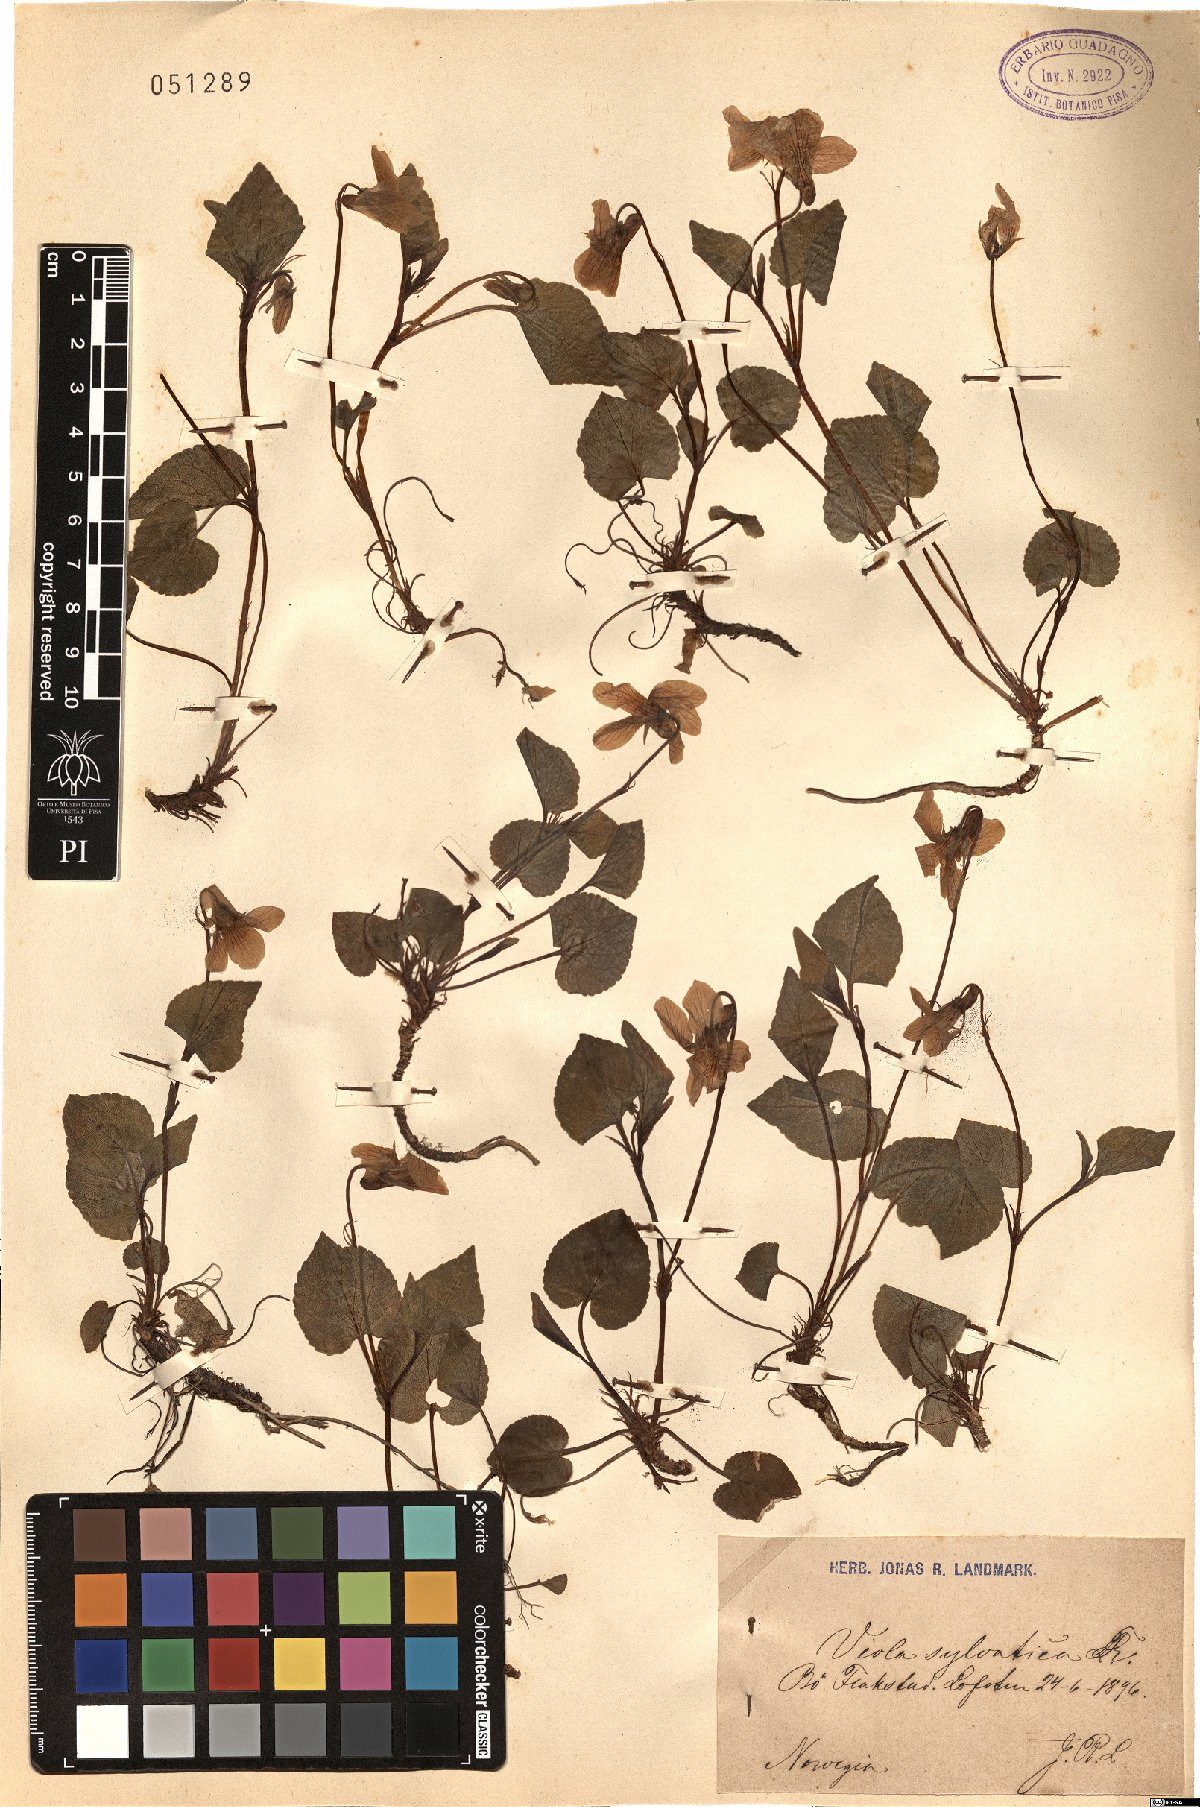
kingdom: Plantae
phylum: Tracheophyta
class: Magnoliopsida
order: Malpighiales
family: Violaceae
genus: Viola
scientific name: Viola riviniana
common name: Common dog-violet
